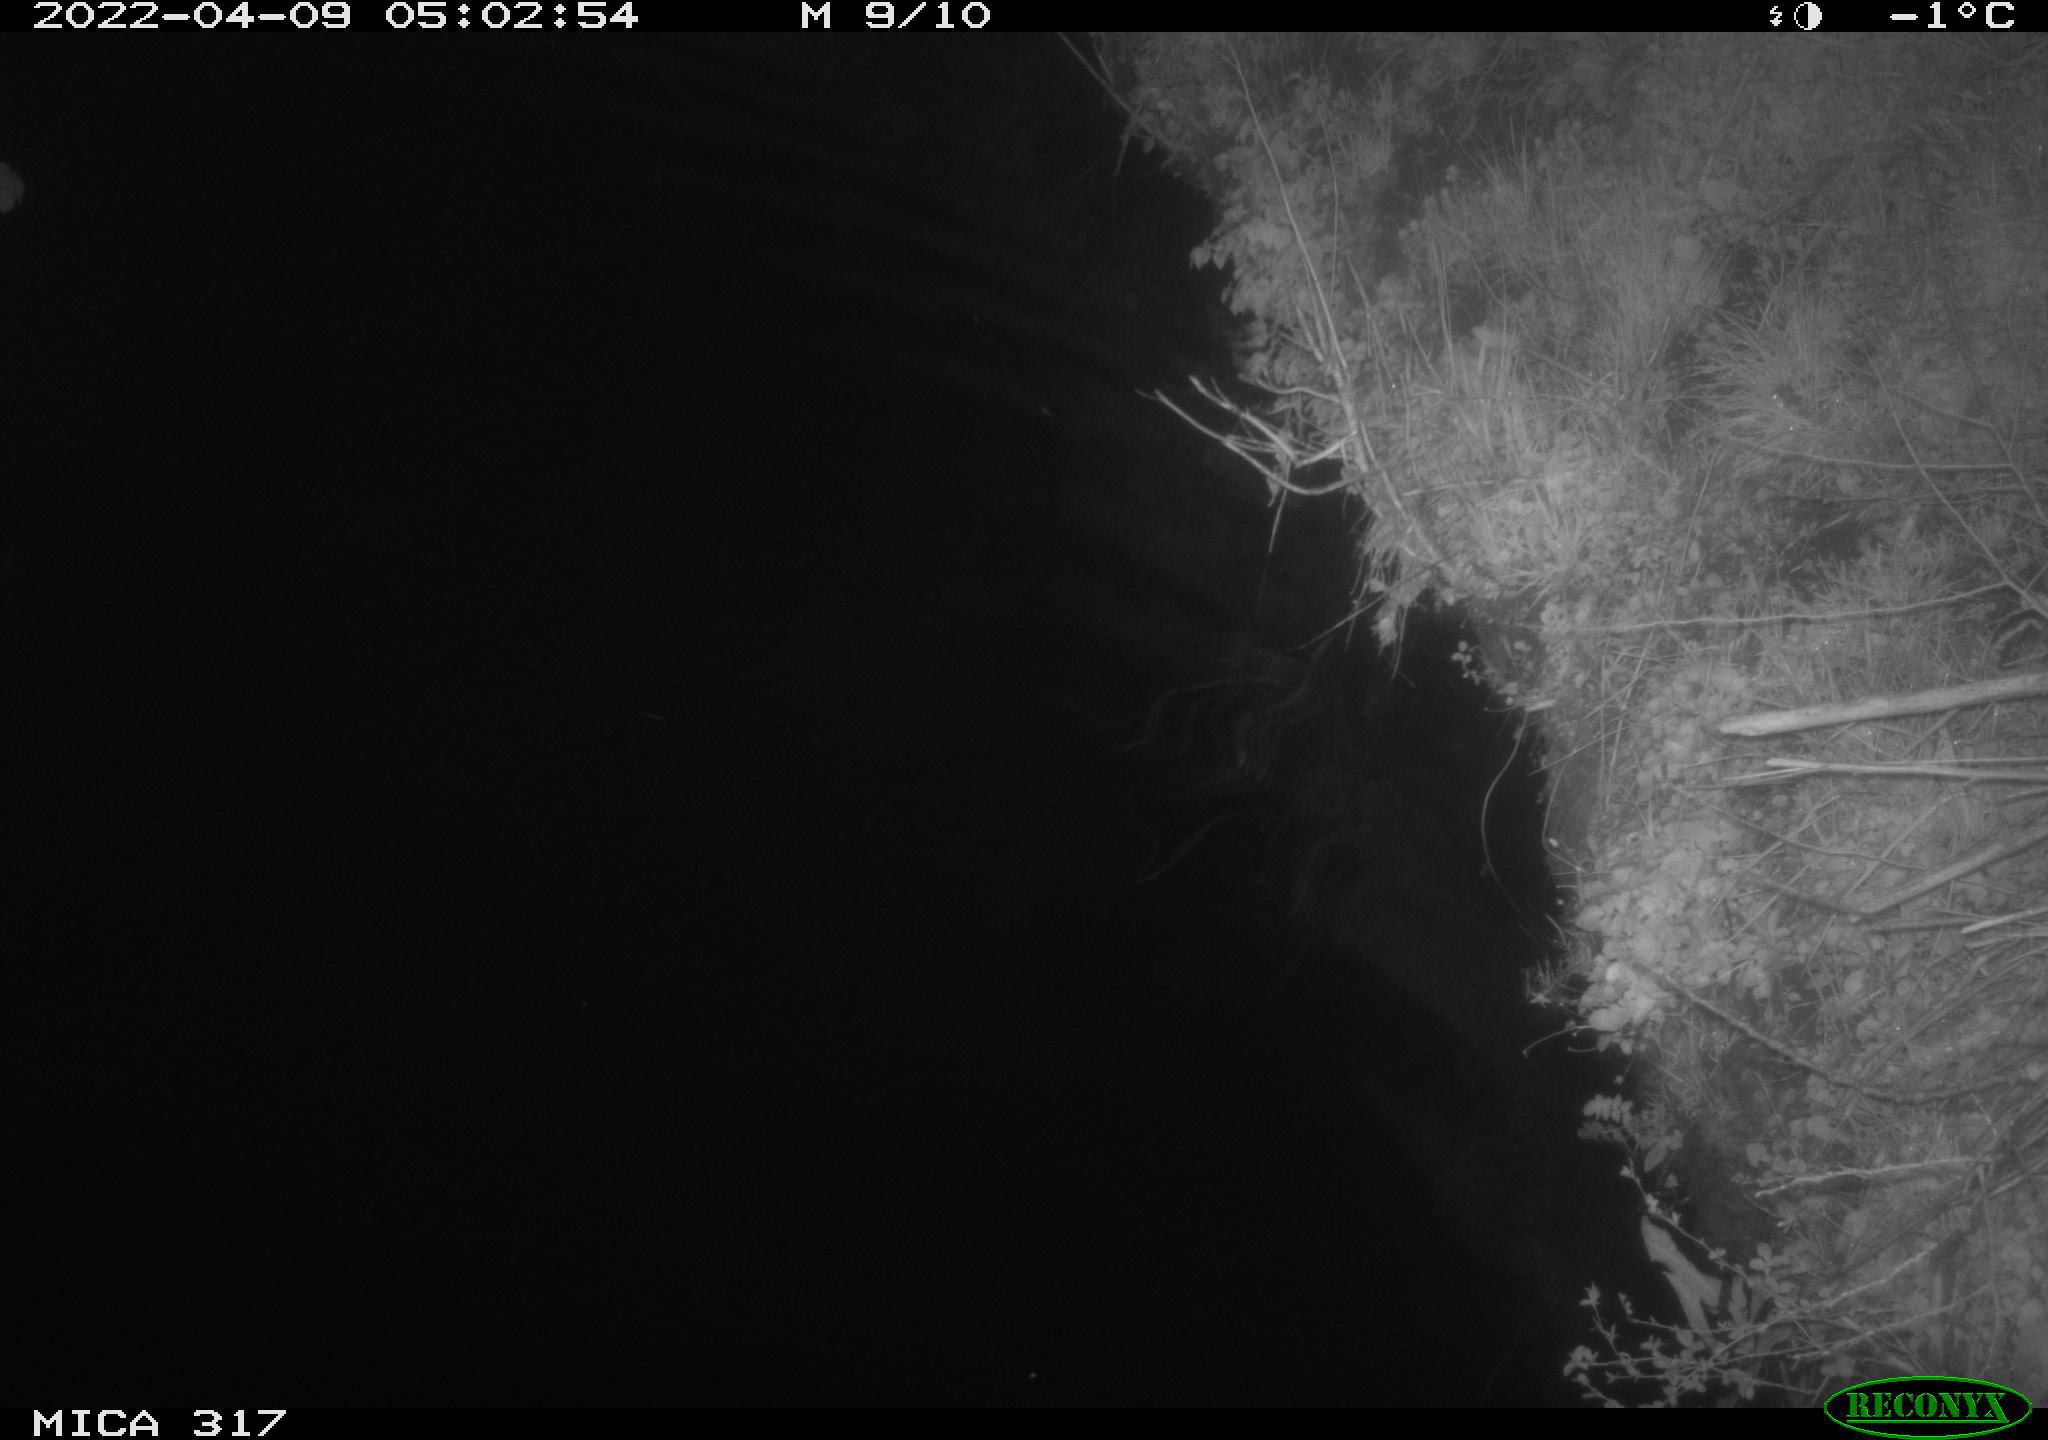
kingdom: Animalia
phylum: Chordata
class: Aves
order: Anseriformes
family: Anatidae
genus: Anas
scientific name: Anas platyrhynchos
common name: Mallard
